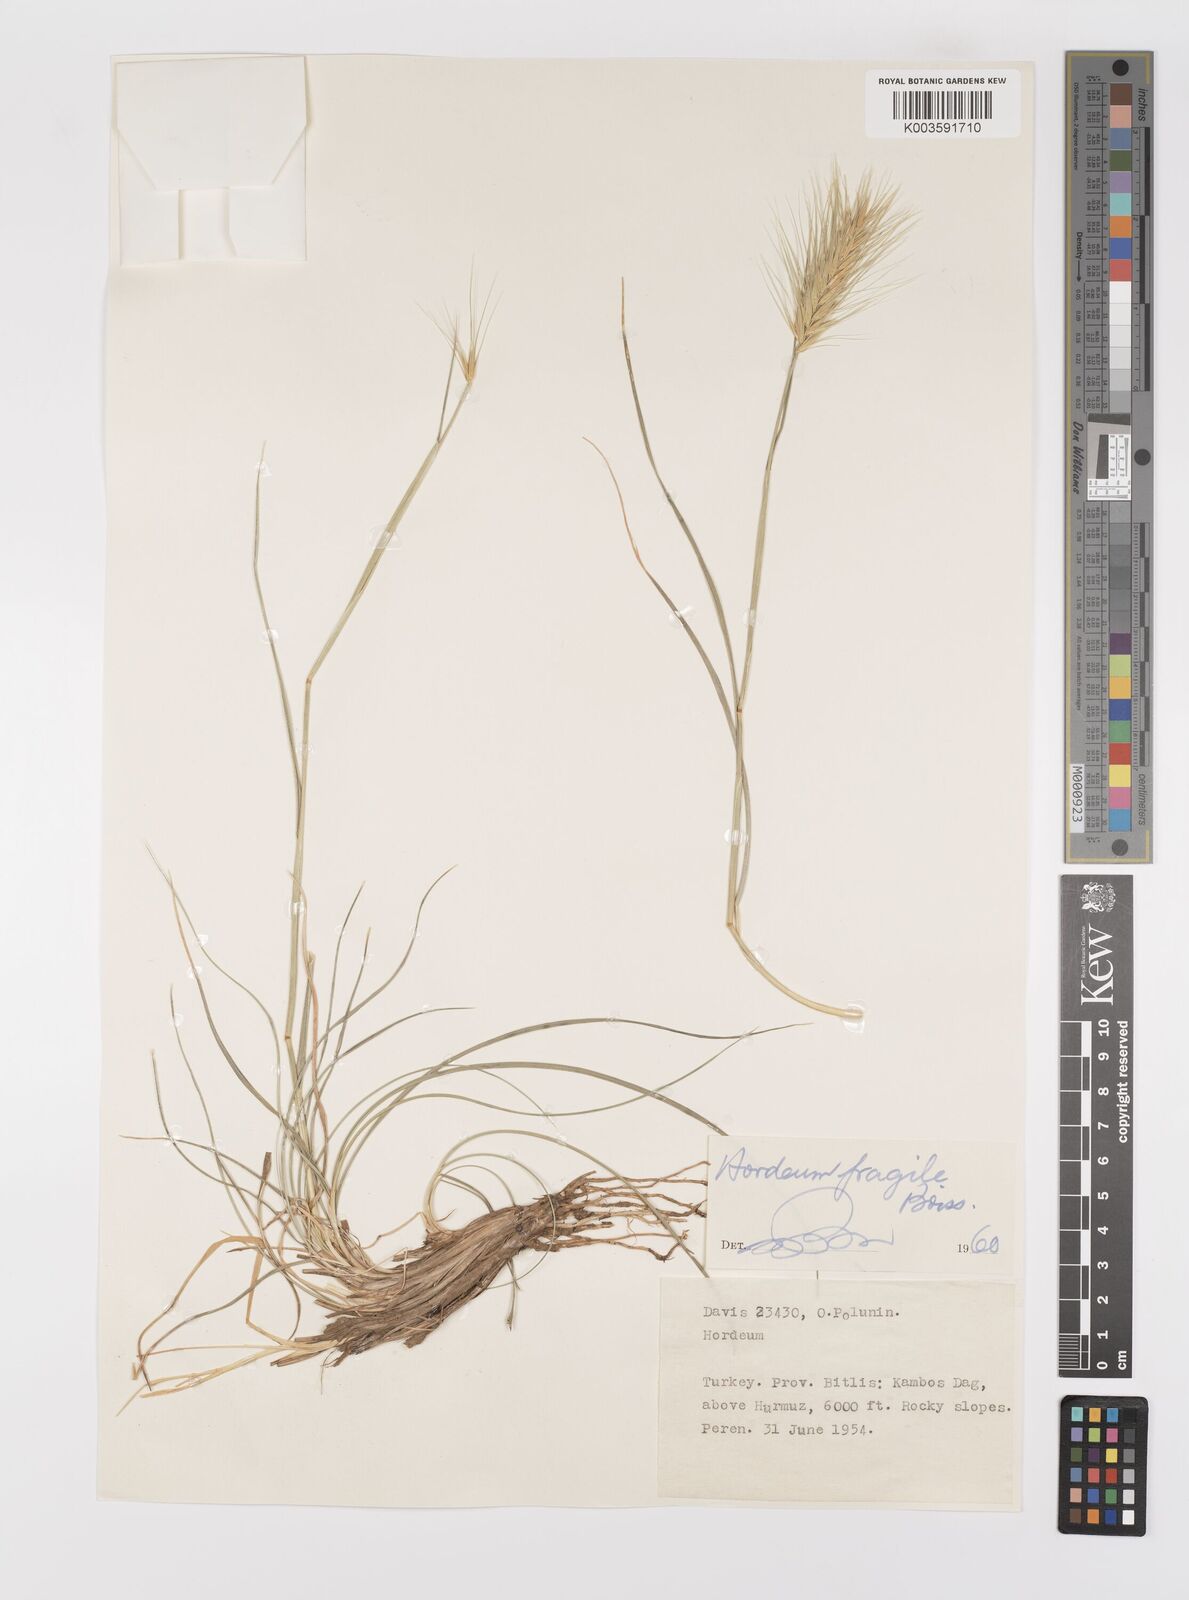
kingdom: Plantae
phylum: Tracheophyta
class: Liliopsida
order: Poales
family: Poaceae
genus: Psathyrostachys
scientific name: Psathyrostachys fragilis
